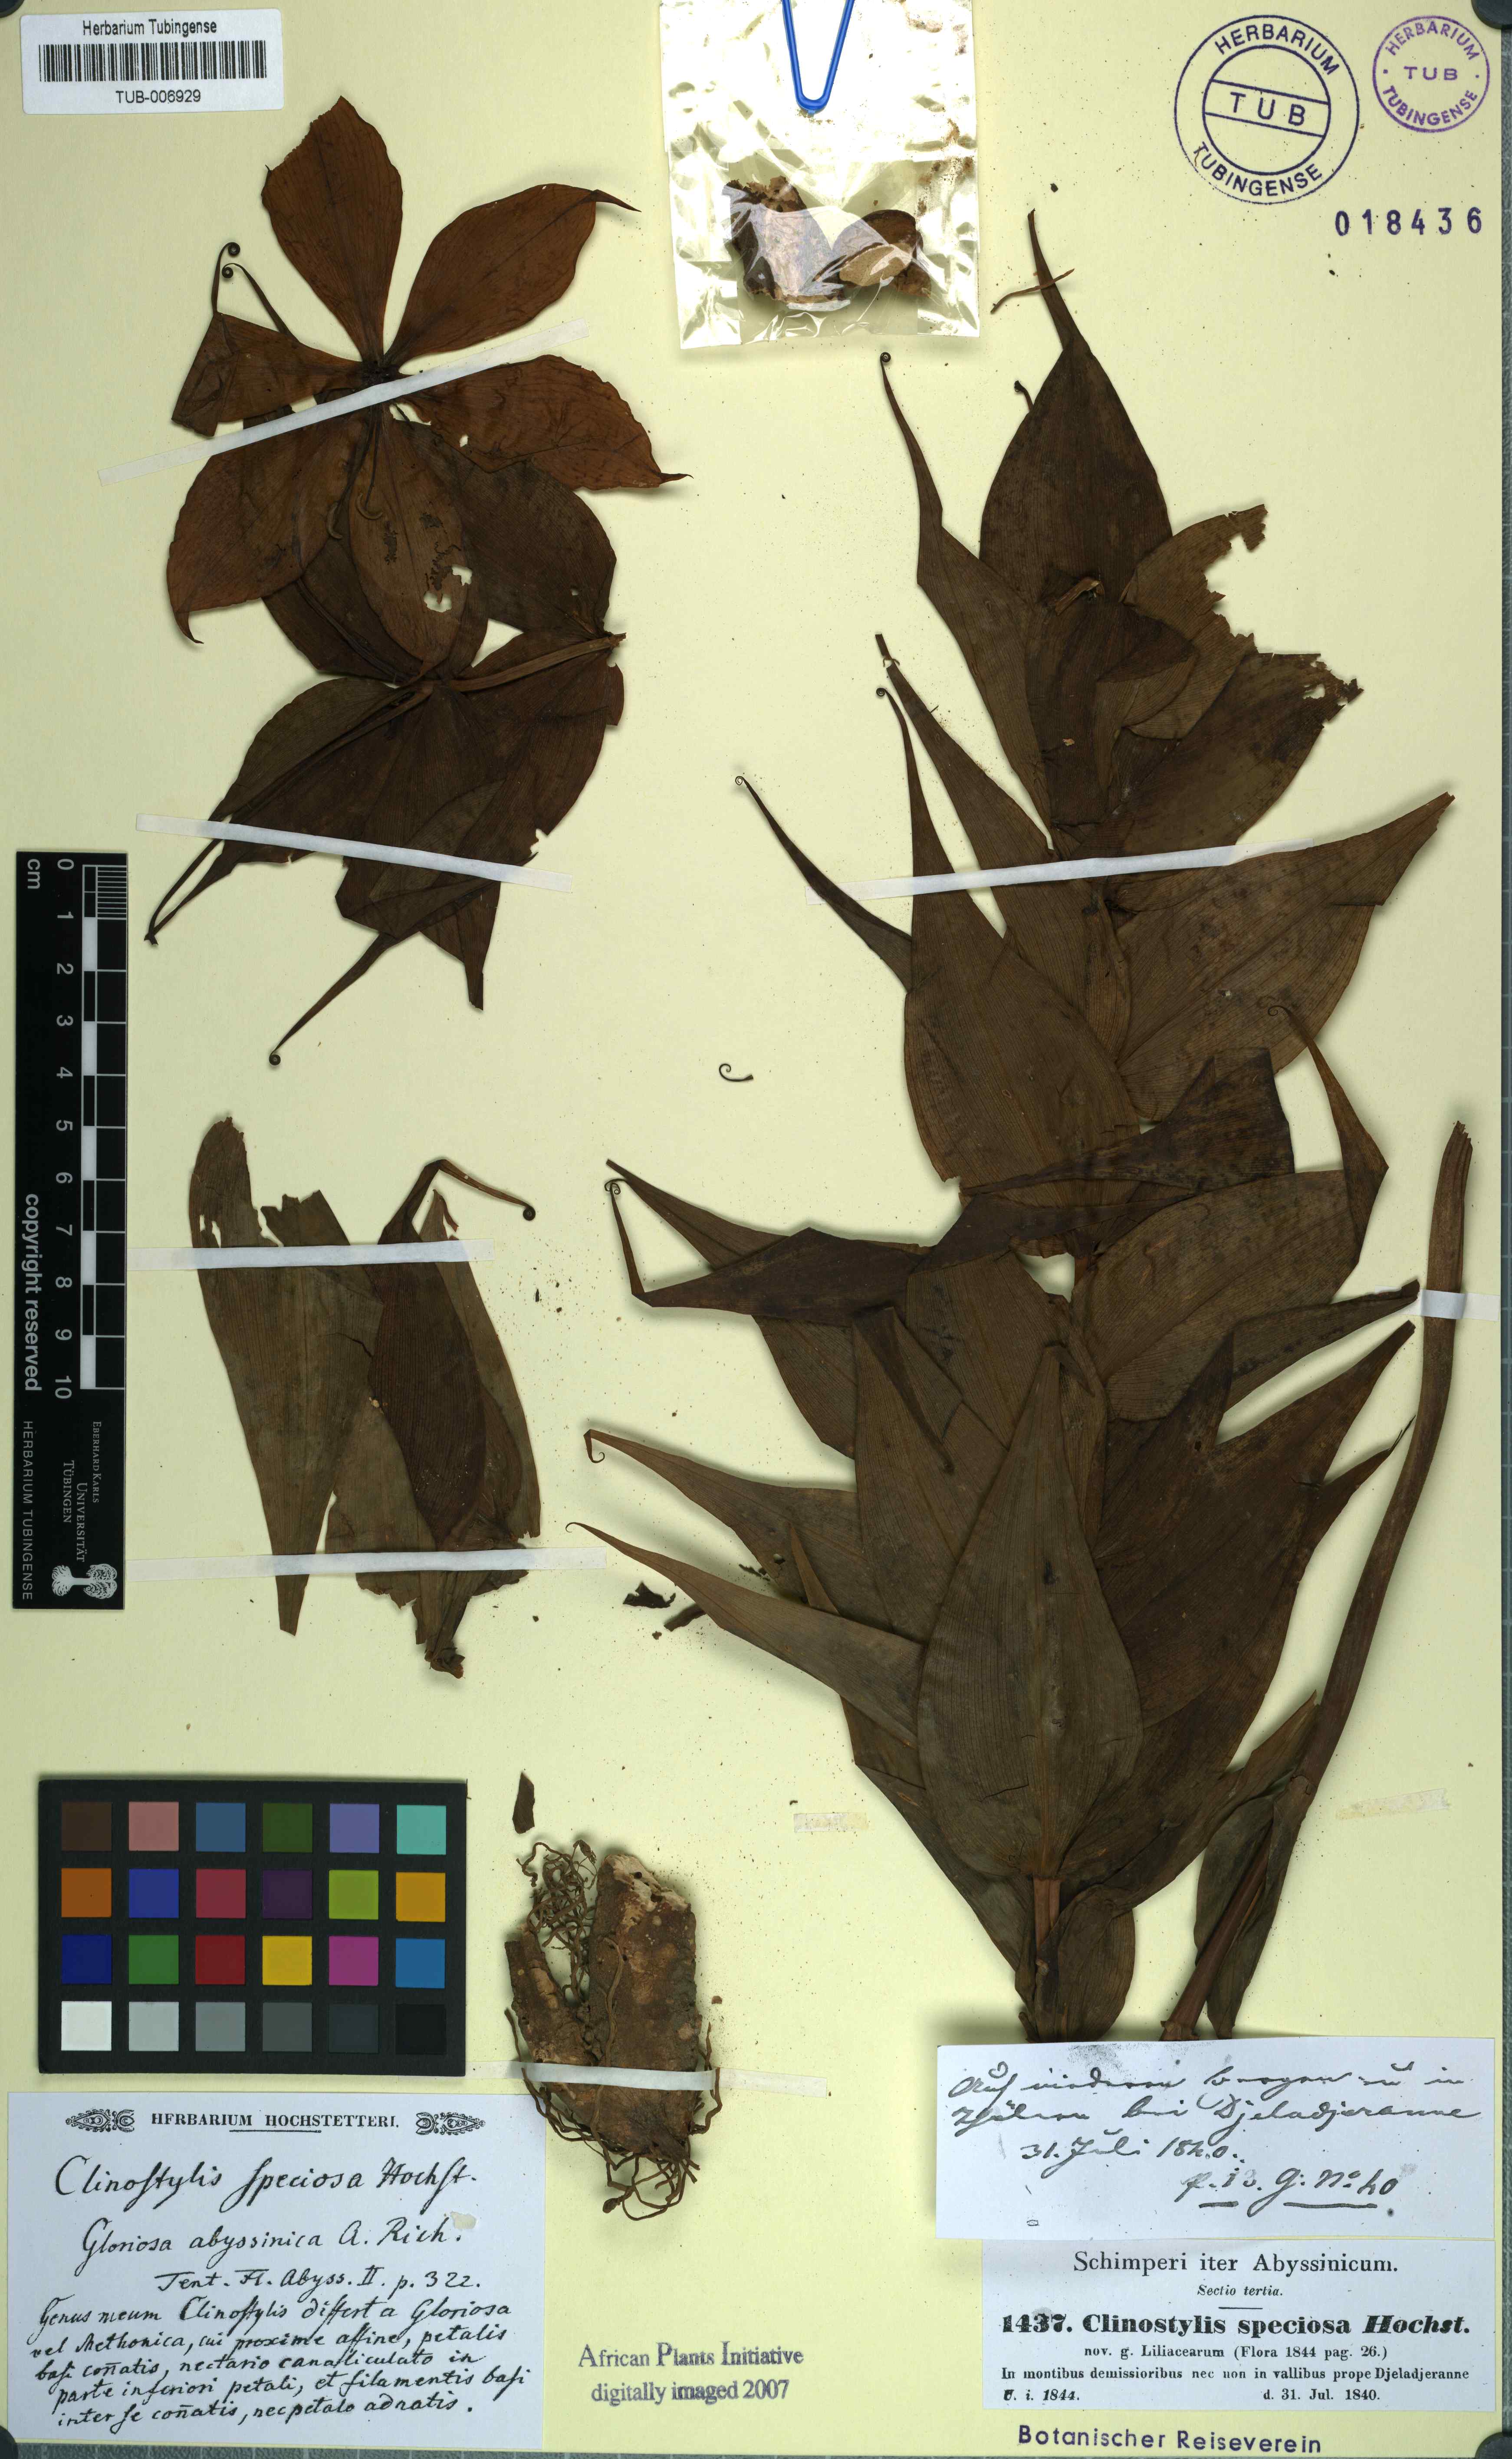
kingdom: Plantae
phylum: Tracheophyta
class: Liliopsida
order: Liliales
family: Colchicaceae
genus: Gloriosa
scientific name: Gloriosa simplex
